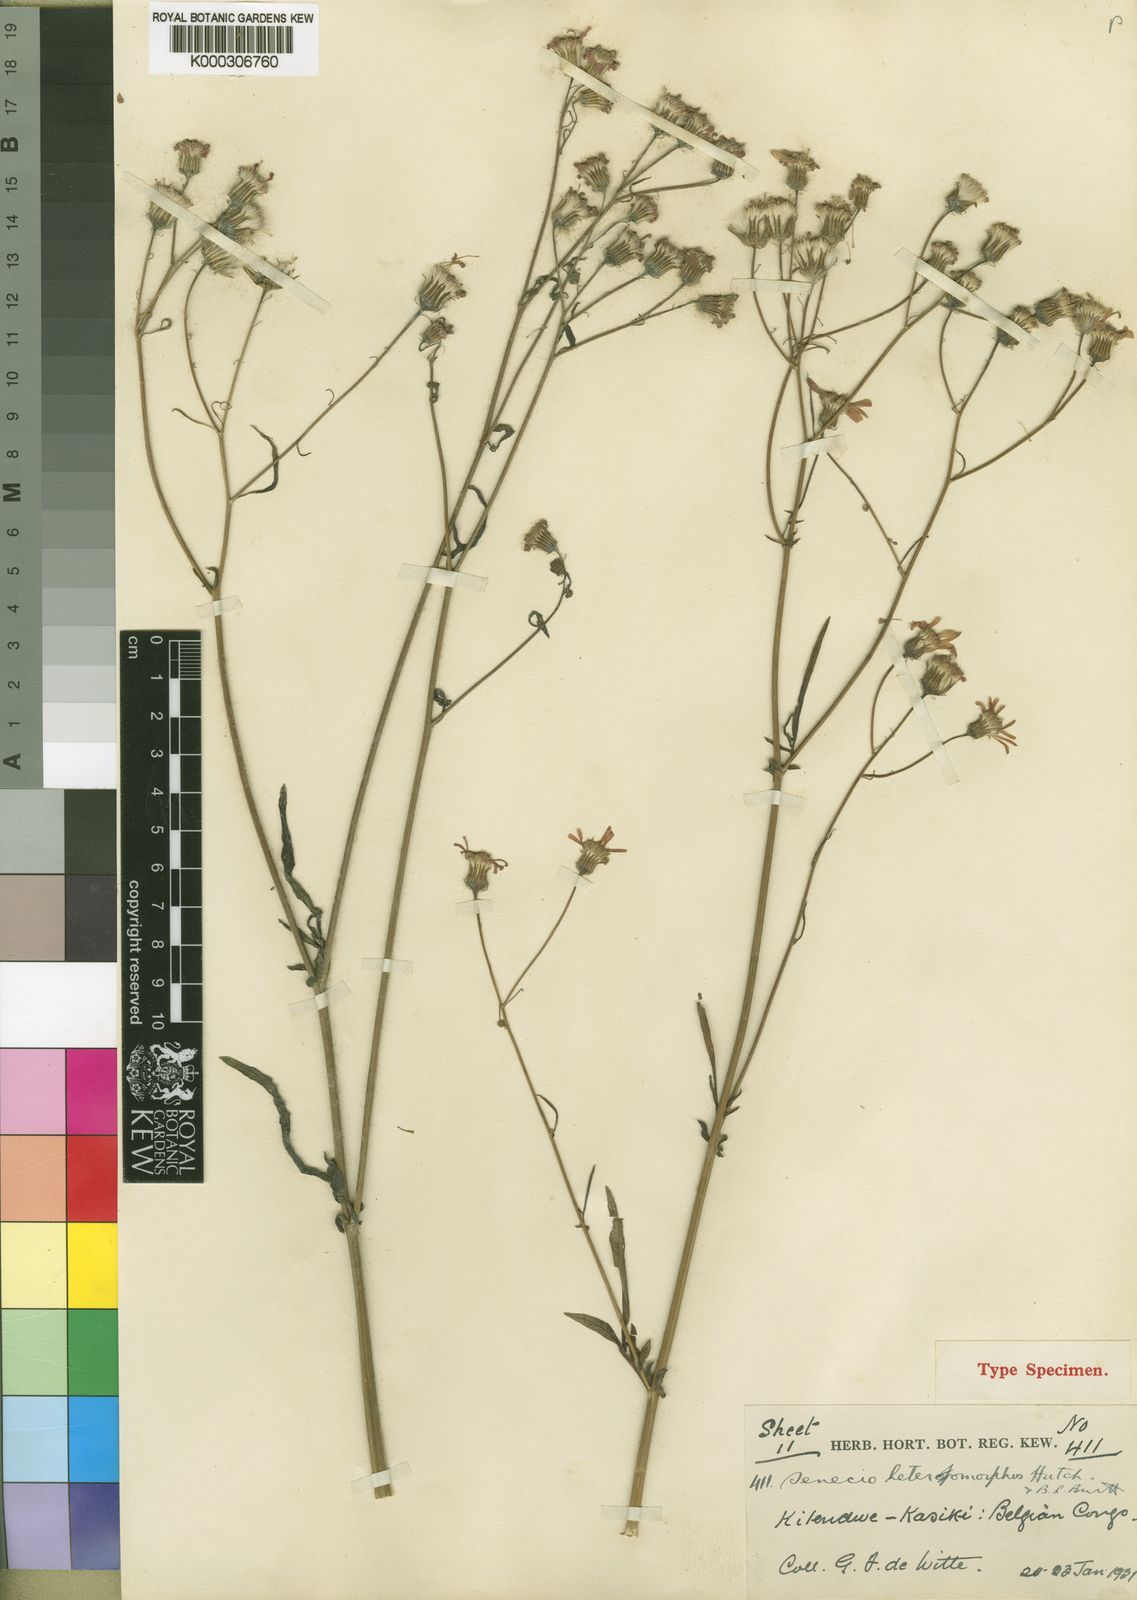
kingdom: Plantae
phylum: Tracheophyta
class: Magnoliopsida
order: Asterales
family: Asteraceae
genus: Crassocephalum
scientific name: Crassocephalum radiatum
